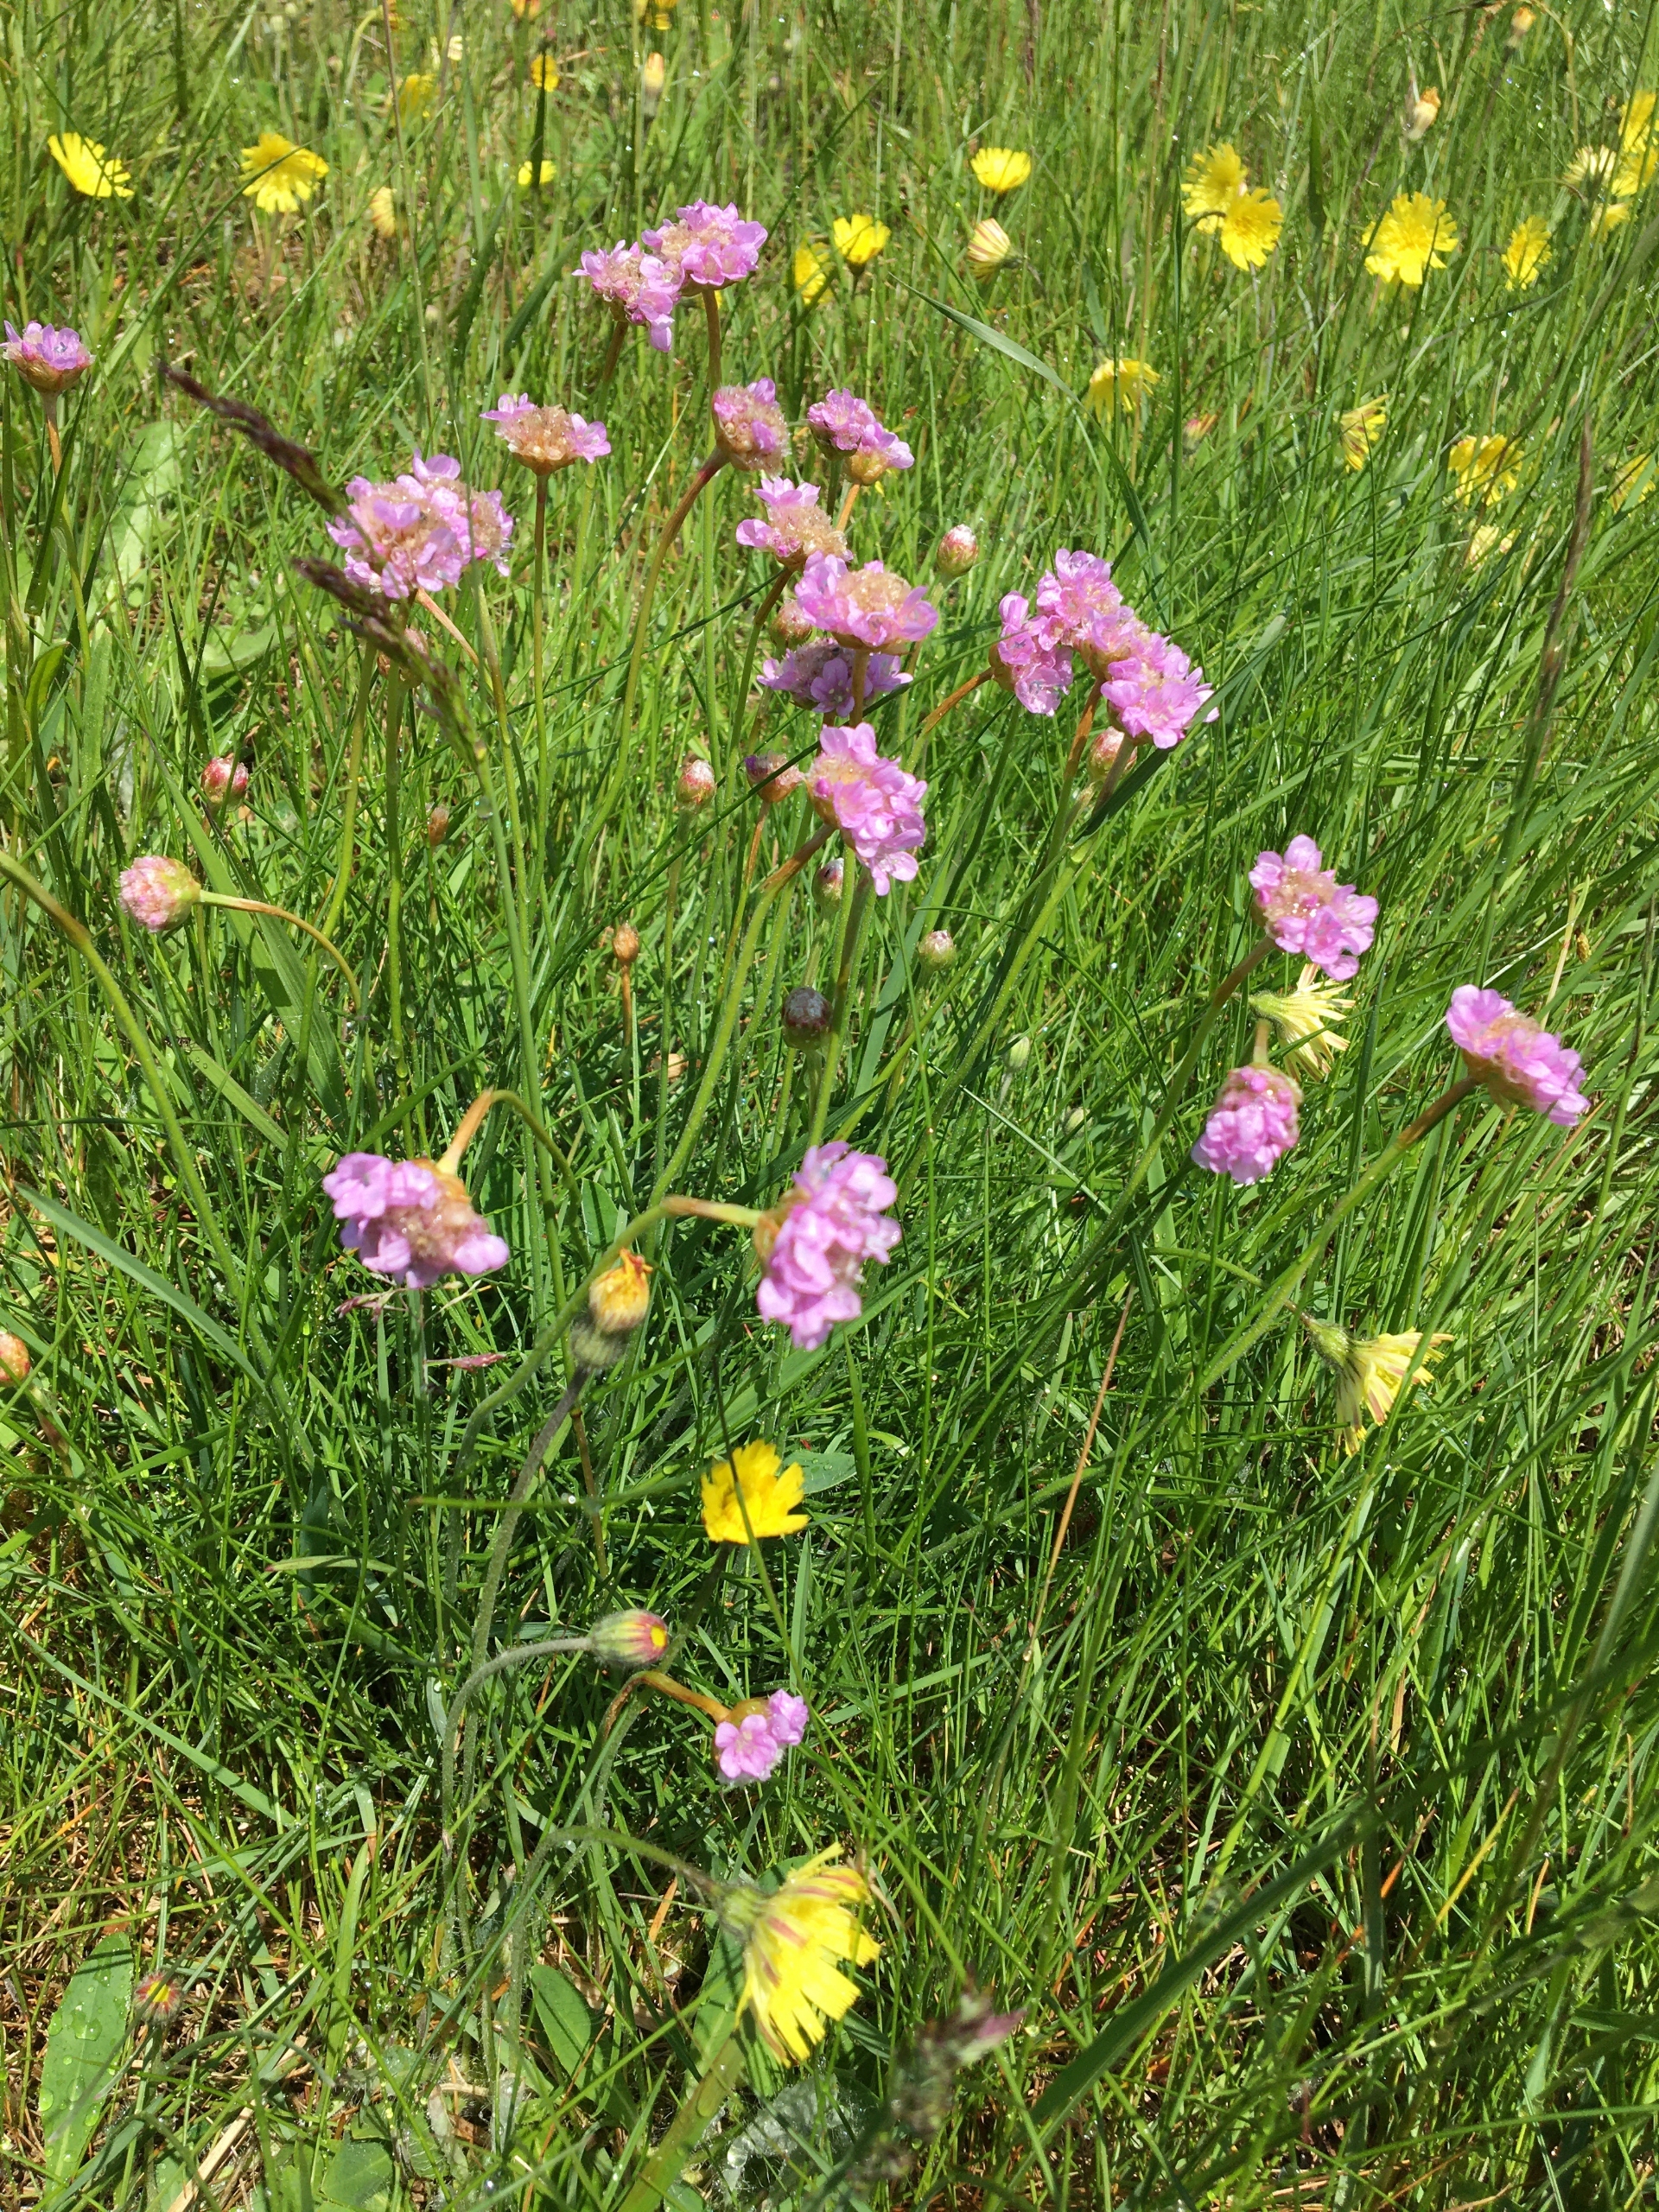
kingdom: Plantae
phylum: Tracheophyta
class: Magnoliopsida
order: Caryophyllales
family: Plumbaginaceae
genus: Armeria
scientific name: Armeria maritima
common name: Engelskgræs
